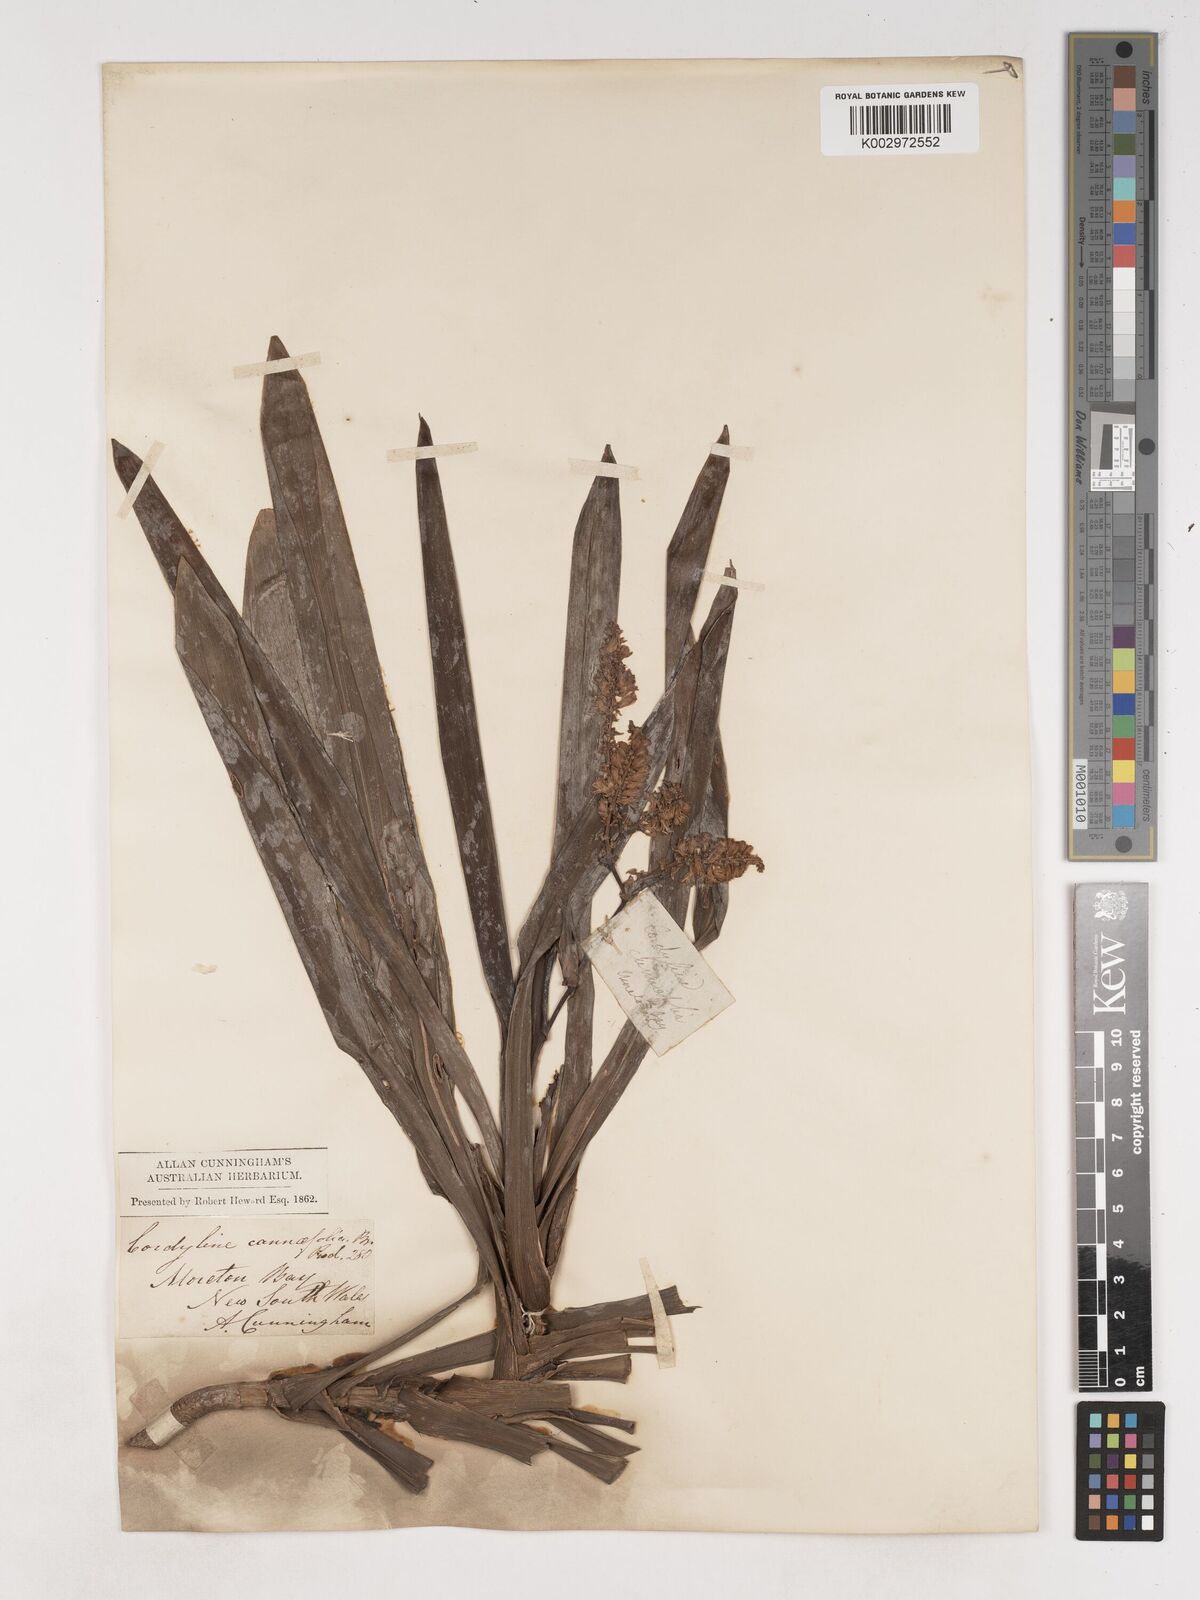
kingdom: Plantae
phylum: Tracheophyta
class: Liliopsida
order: Asparagales
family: Asparagaceae
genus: Cordyline
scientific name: Cordyline fruticosa
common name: Good-luck-plant
